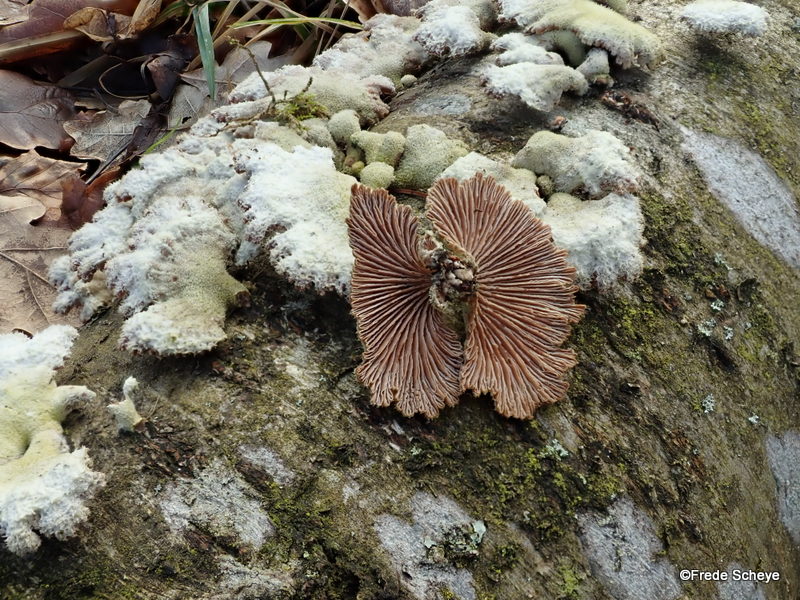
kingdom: Fungi
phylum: Basidiomycota
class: Agaricomycetes
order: Agaricales
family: Schizophyllaceae
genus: Schizophyllum
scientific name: Schizophyllum commune
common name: kløvblad
